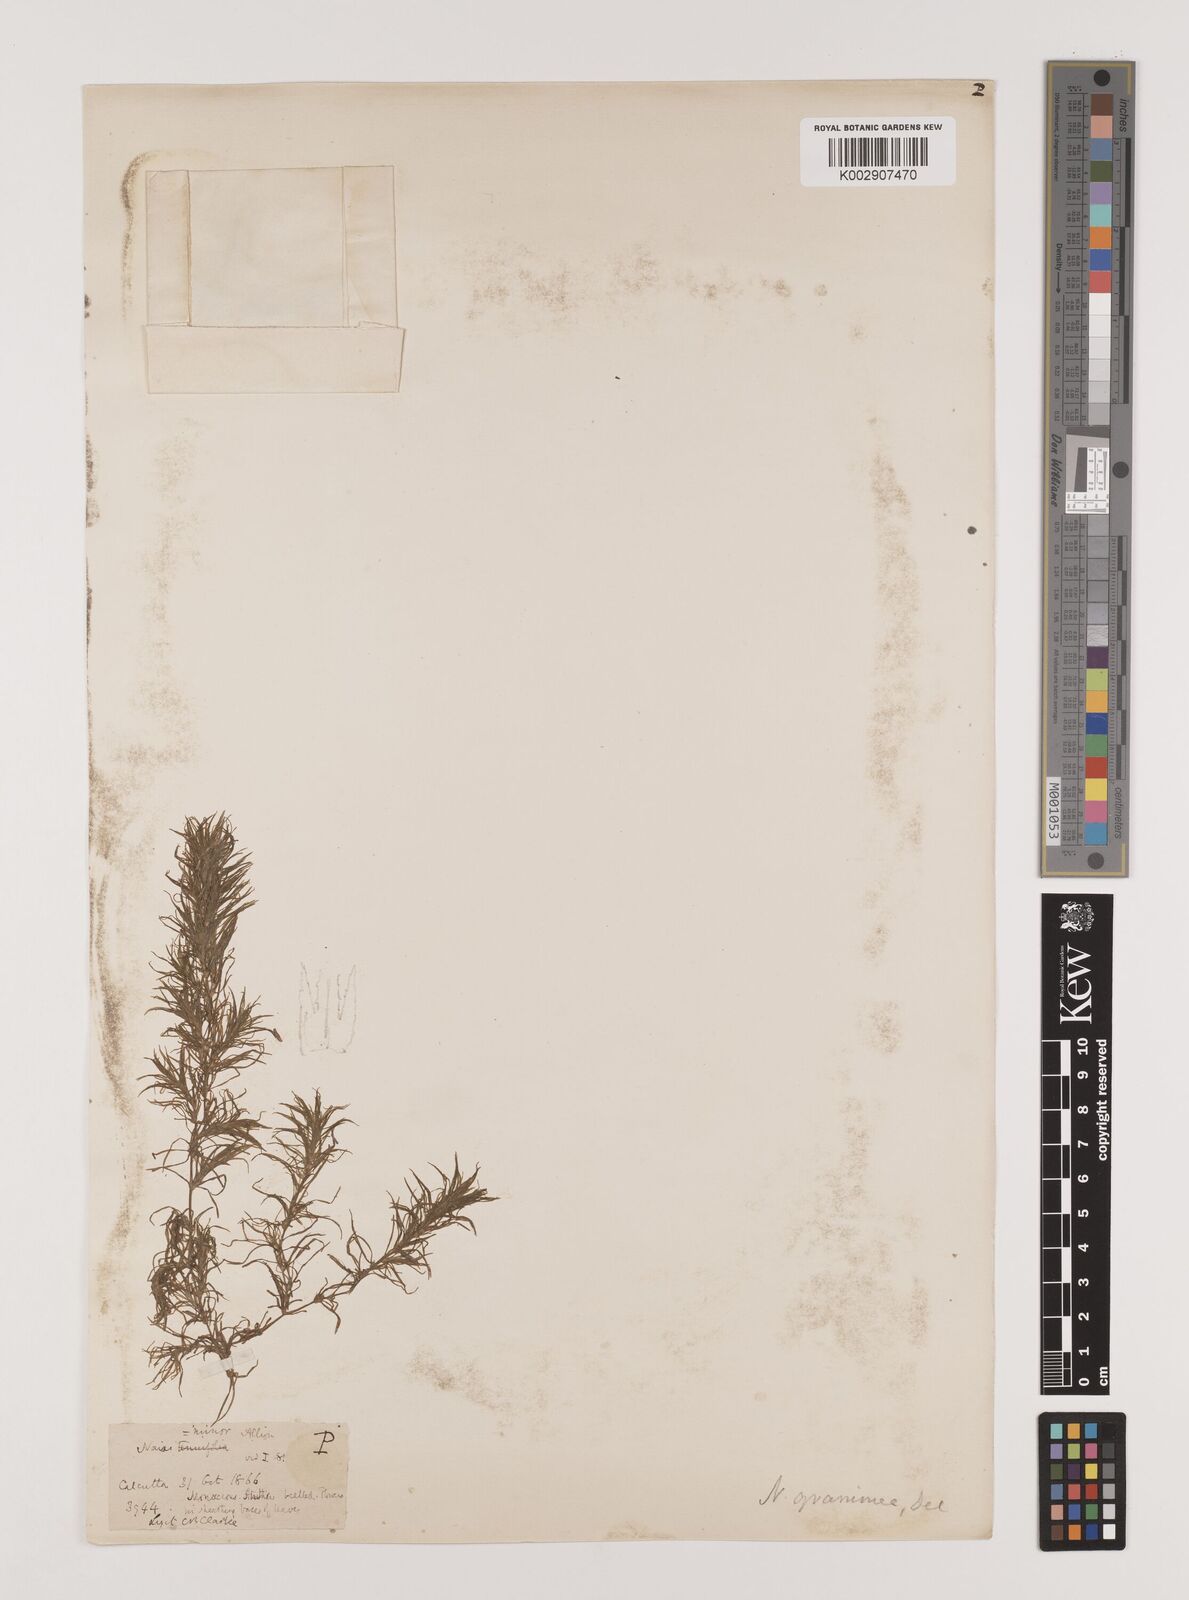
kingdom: Plantae
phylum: Tracheophyta
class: Liliopsida
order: Alismatales
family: Hydrocharitaceae
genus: Najas
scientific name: Najas graminea
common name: Ricefield waternymph
